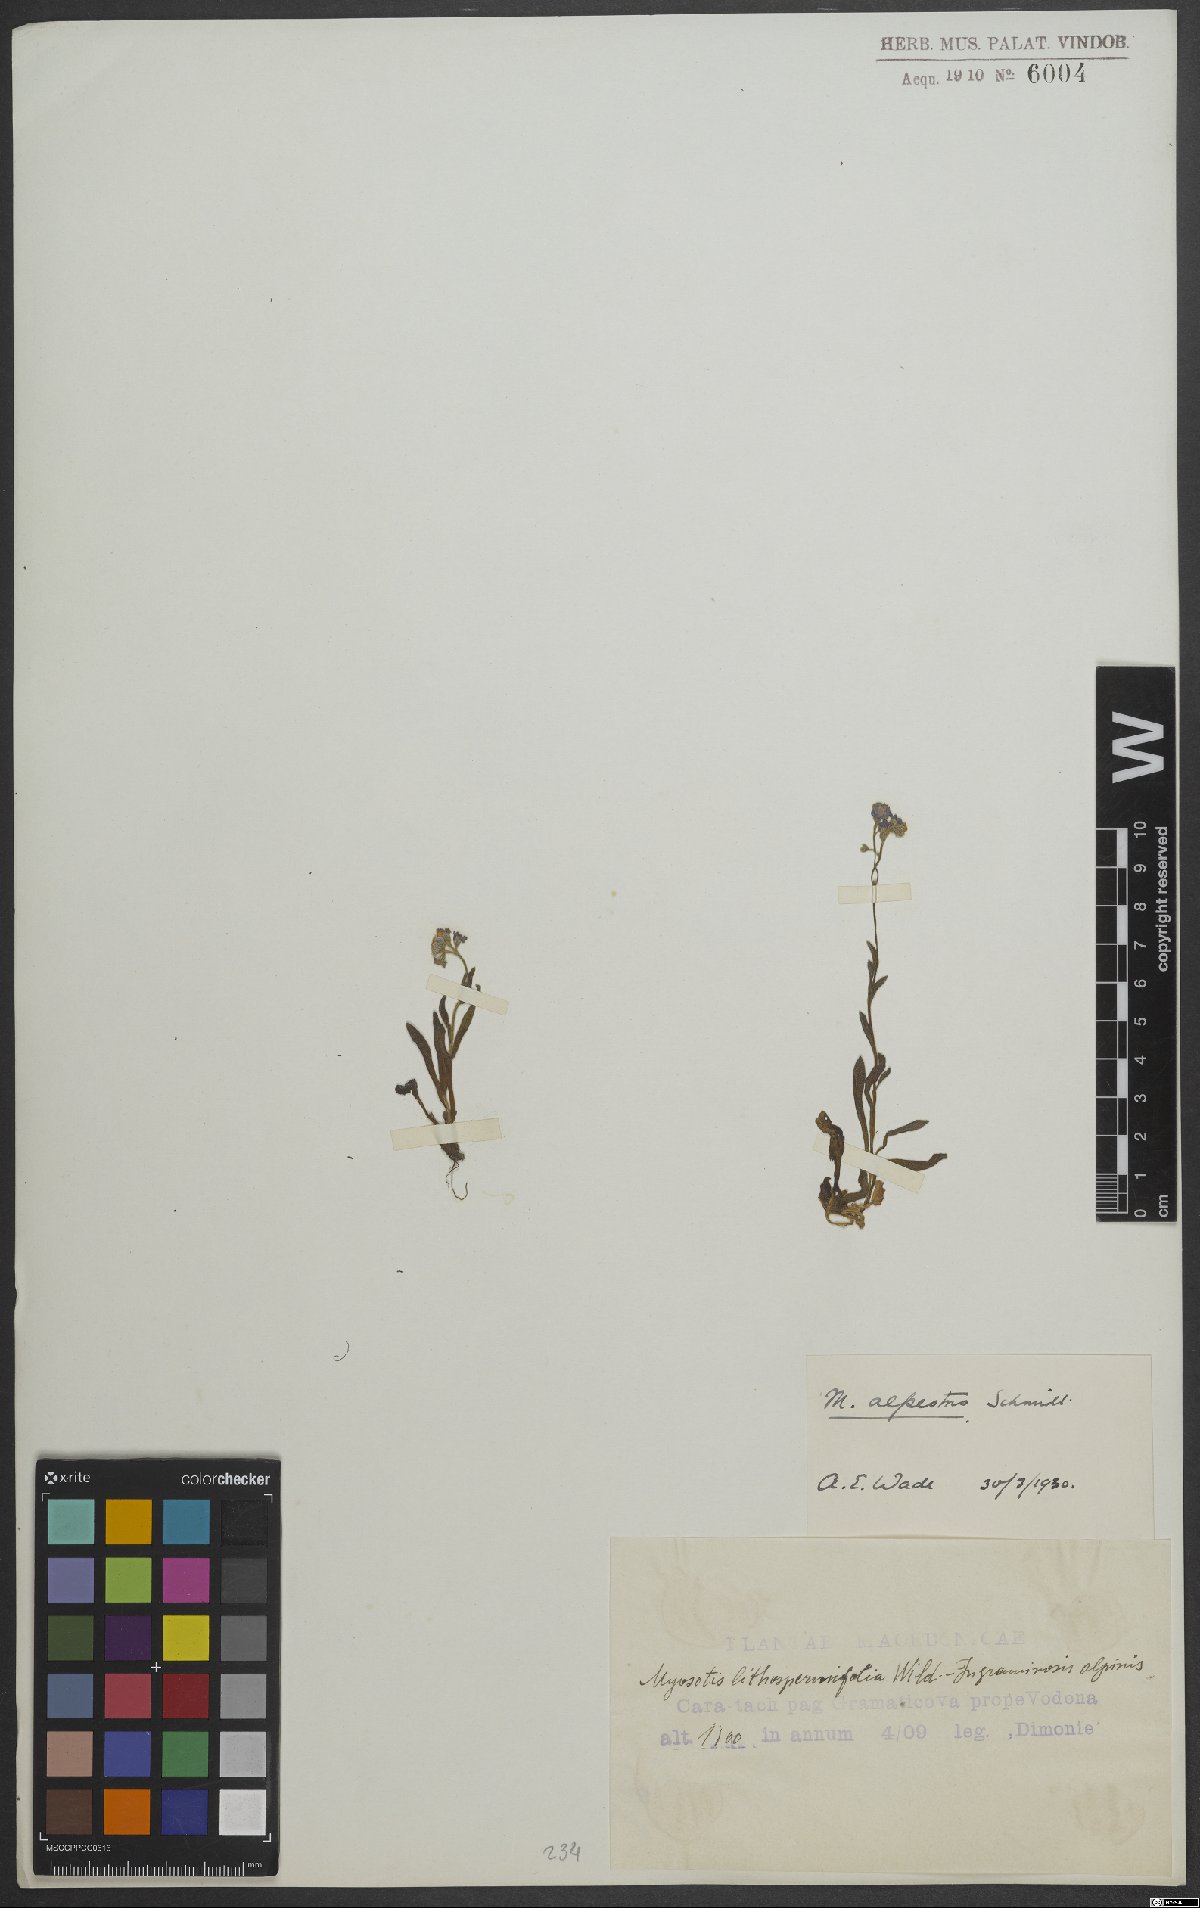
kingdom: Plantae
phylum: Tracheophyta
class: Magnoliopsida
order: Boraginales
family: Boraginaceae
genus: Myosotis
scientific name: Myosotis alpestris
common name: Alpine forget-me-not
